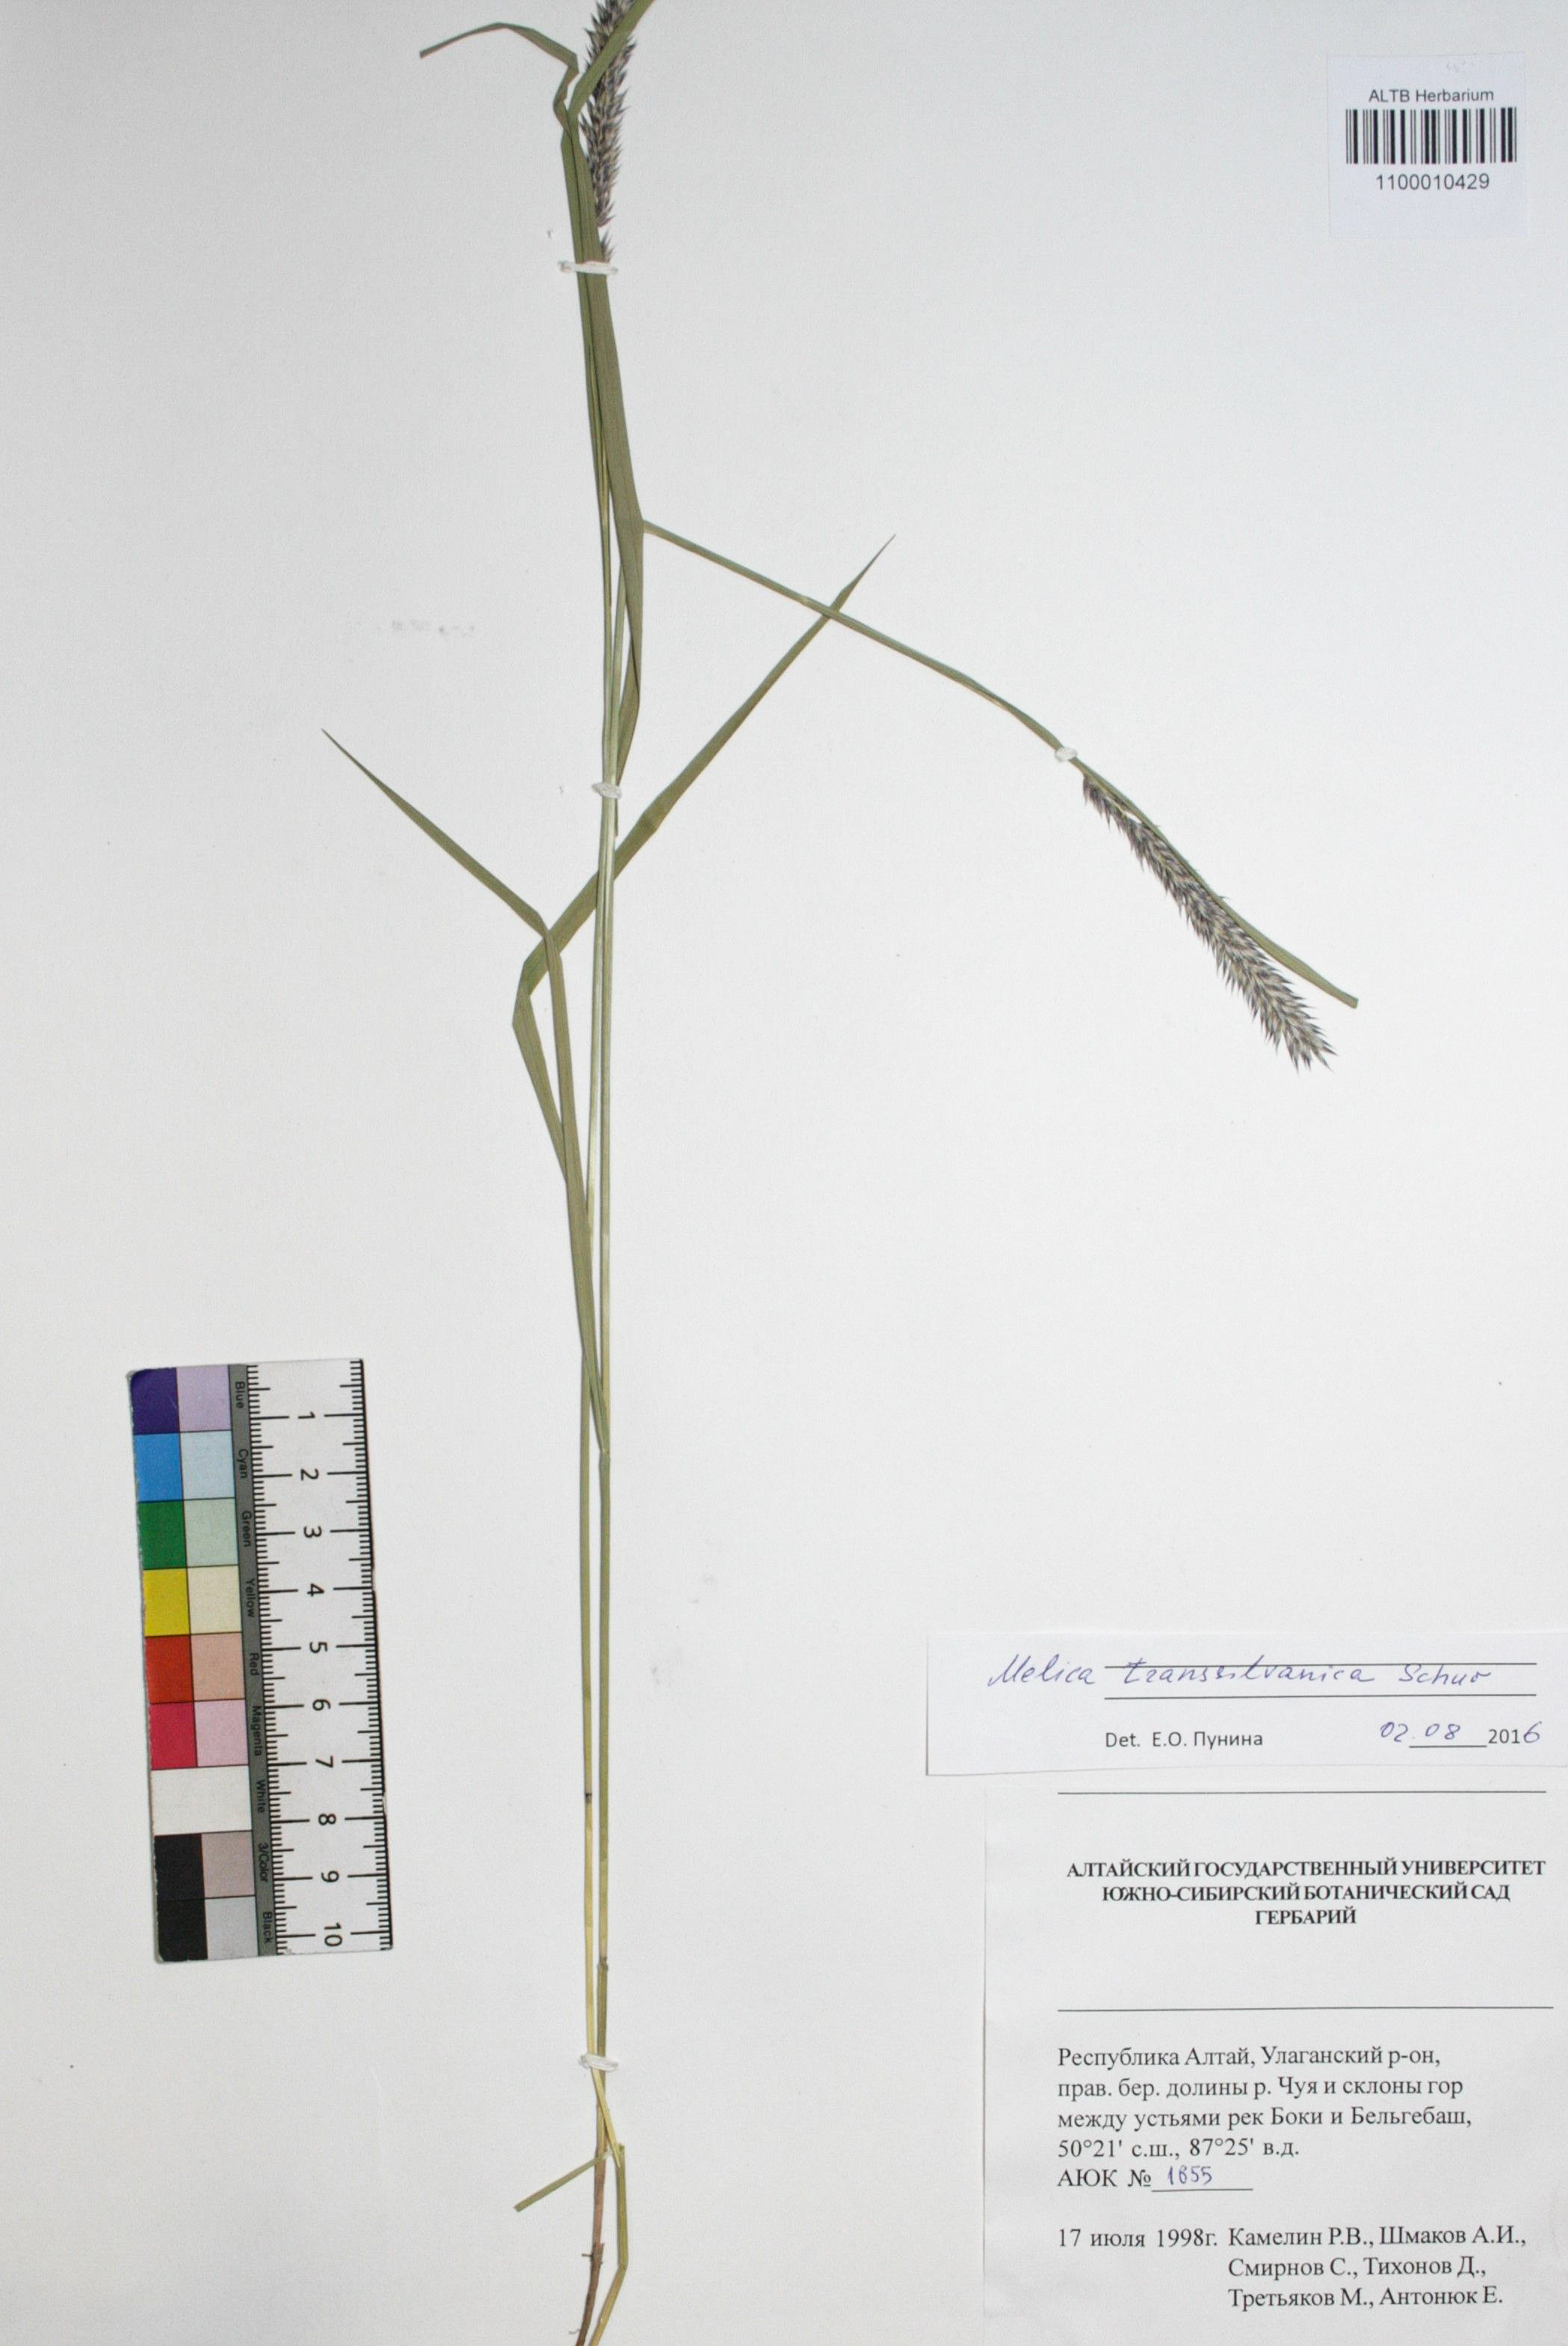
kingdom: Plantae
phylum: Tracheophyta
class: Liliopsida
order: Poales
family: Poaceae
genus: Melica
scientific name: Melica transsilvanica
